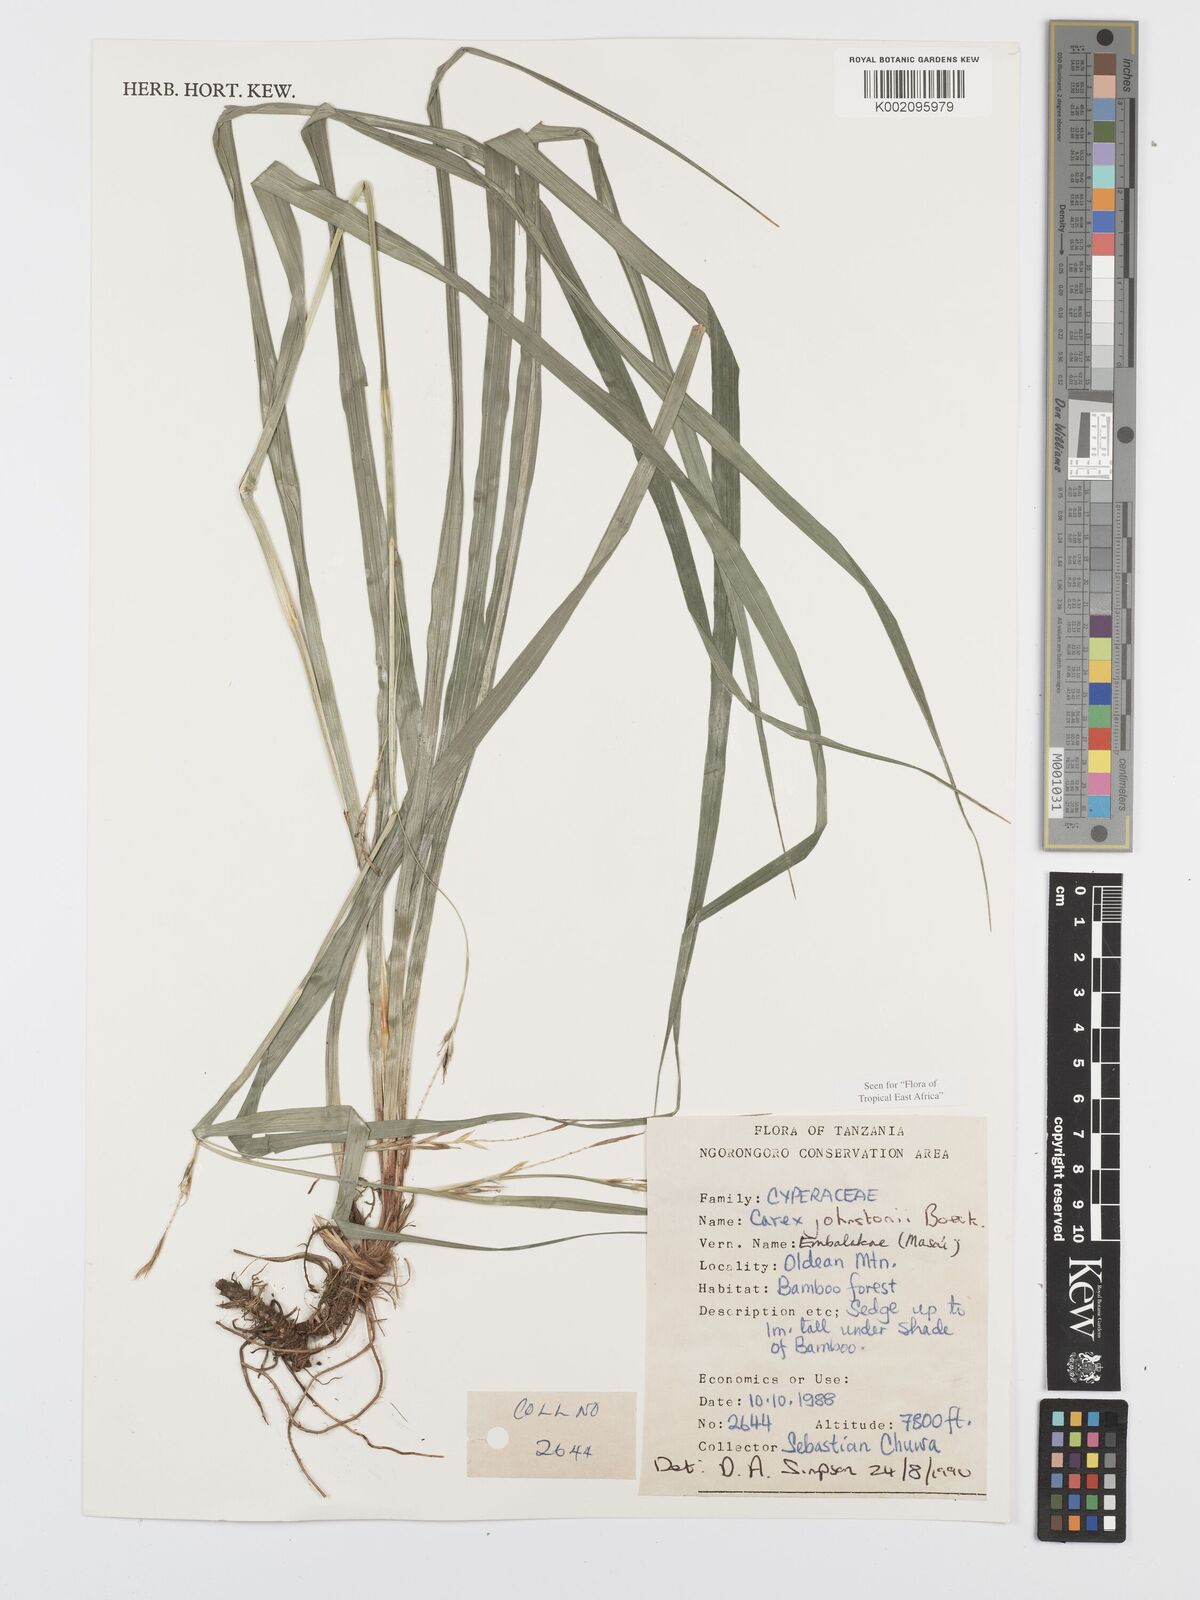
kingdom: Plantae
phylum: Tracheophyta
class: Liliopsida
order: Poales
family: Cyperaceae
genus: Carex
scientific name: Carex johnstonii
